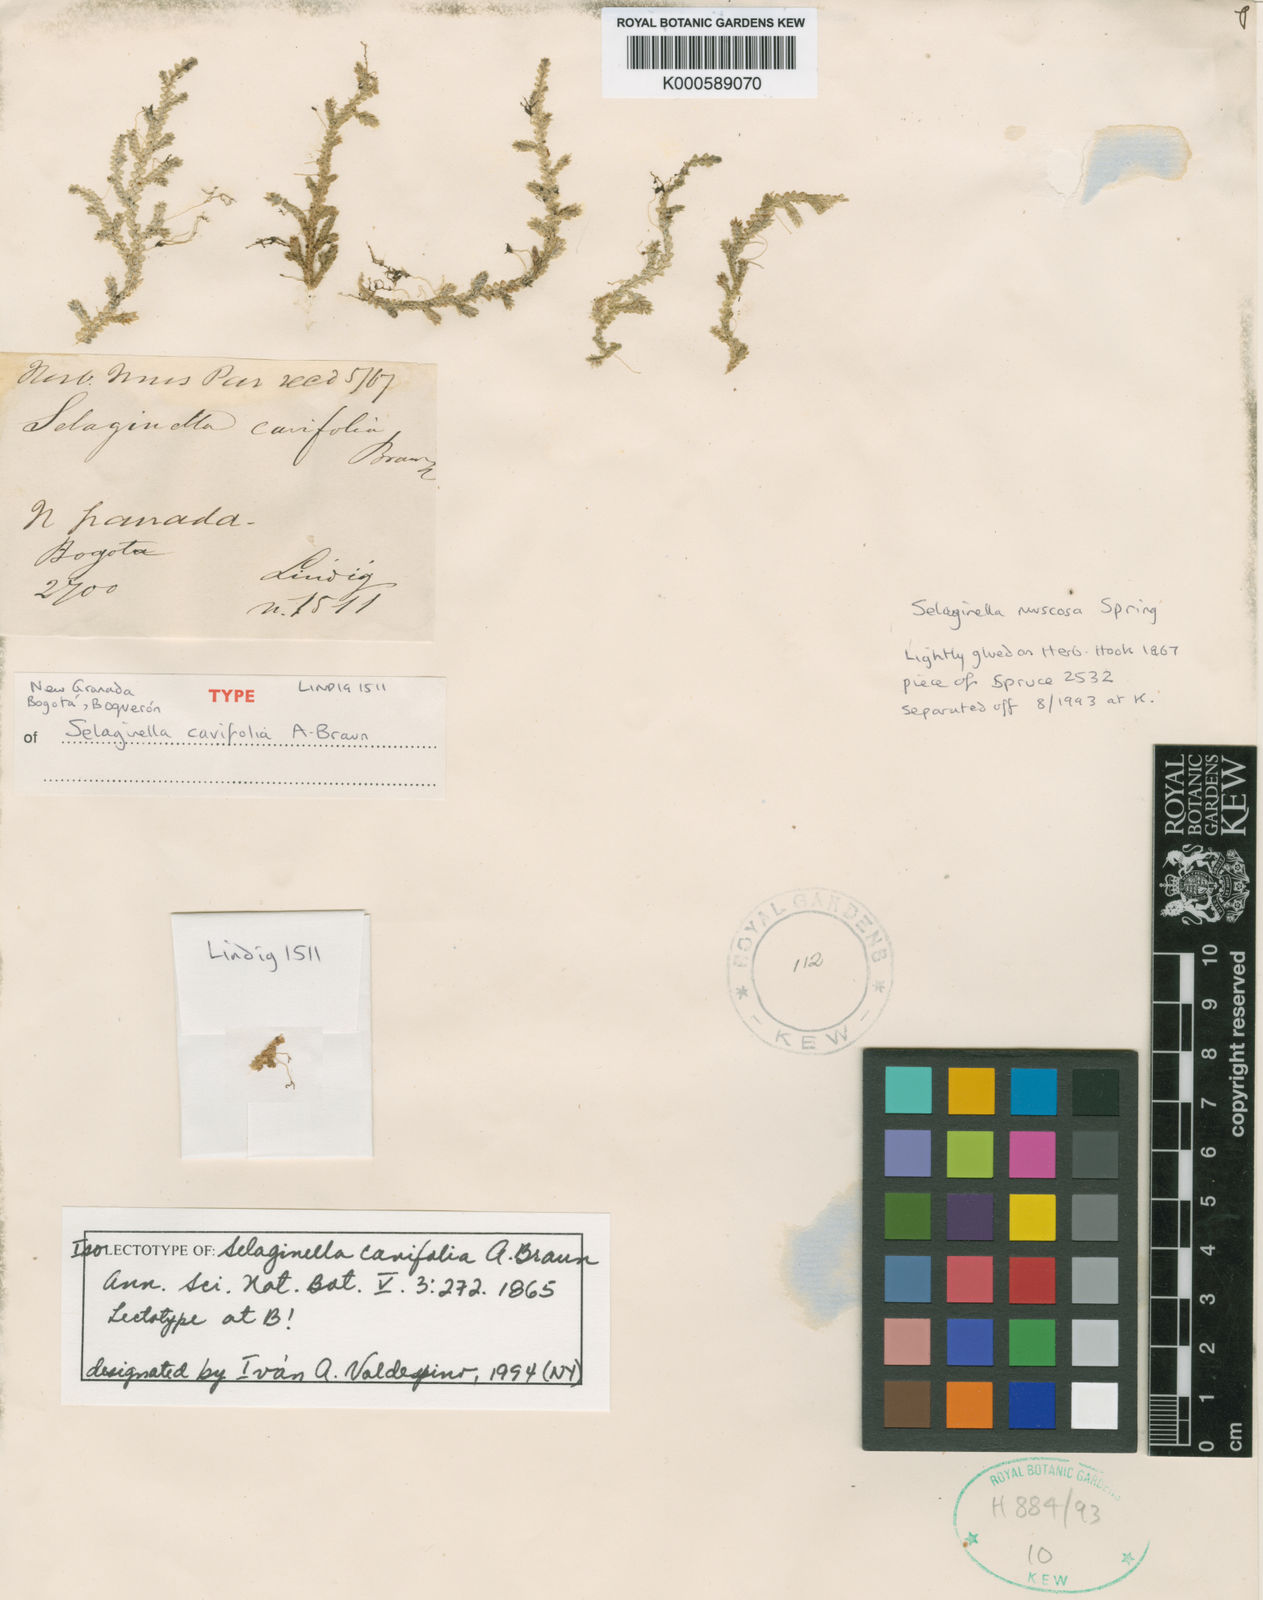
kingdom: Plantae
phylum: Tracheophyta
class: Lycopodiopsida
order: Selaginellales
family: Selaginellaceae
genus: Selaginella
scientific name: Selaginella
